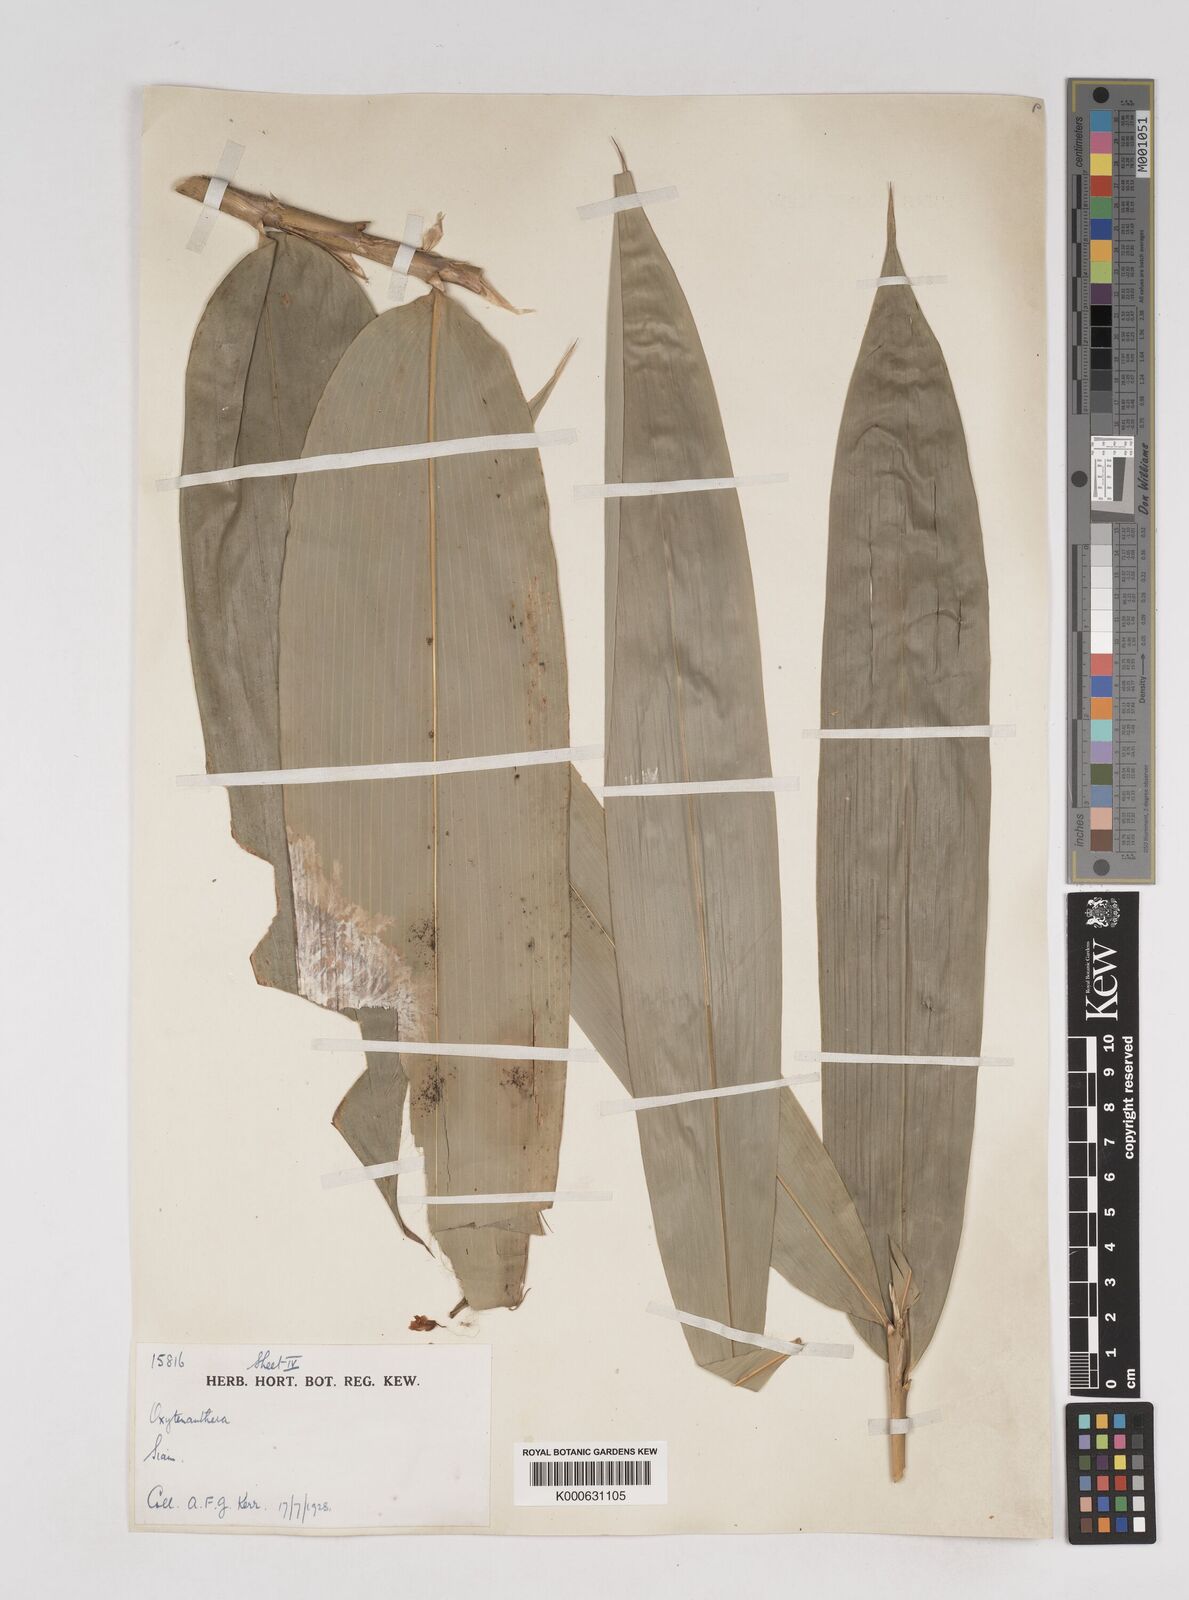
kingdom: Plantae
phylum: Tracheophyta
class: Liliopsida
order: Poales
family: Poaceae
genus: Gigantochloa
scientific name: Gigantochloa ligulata
